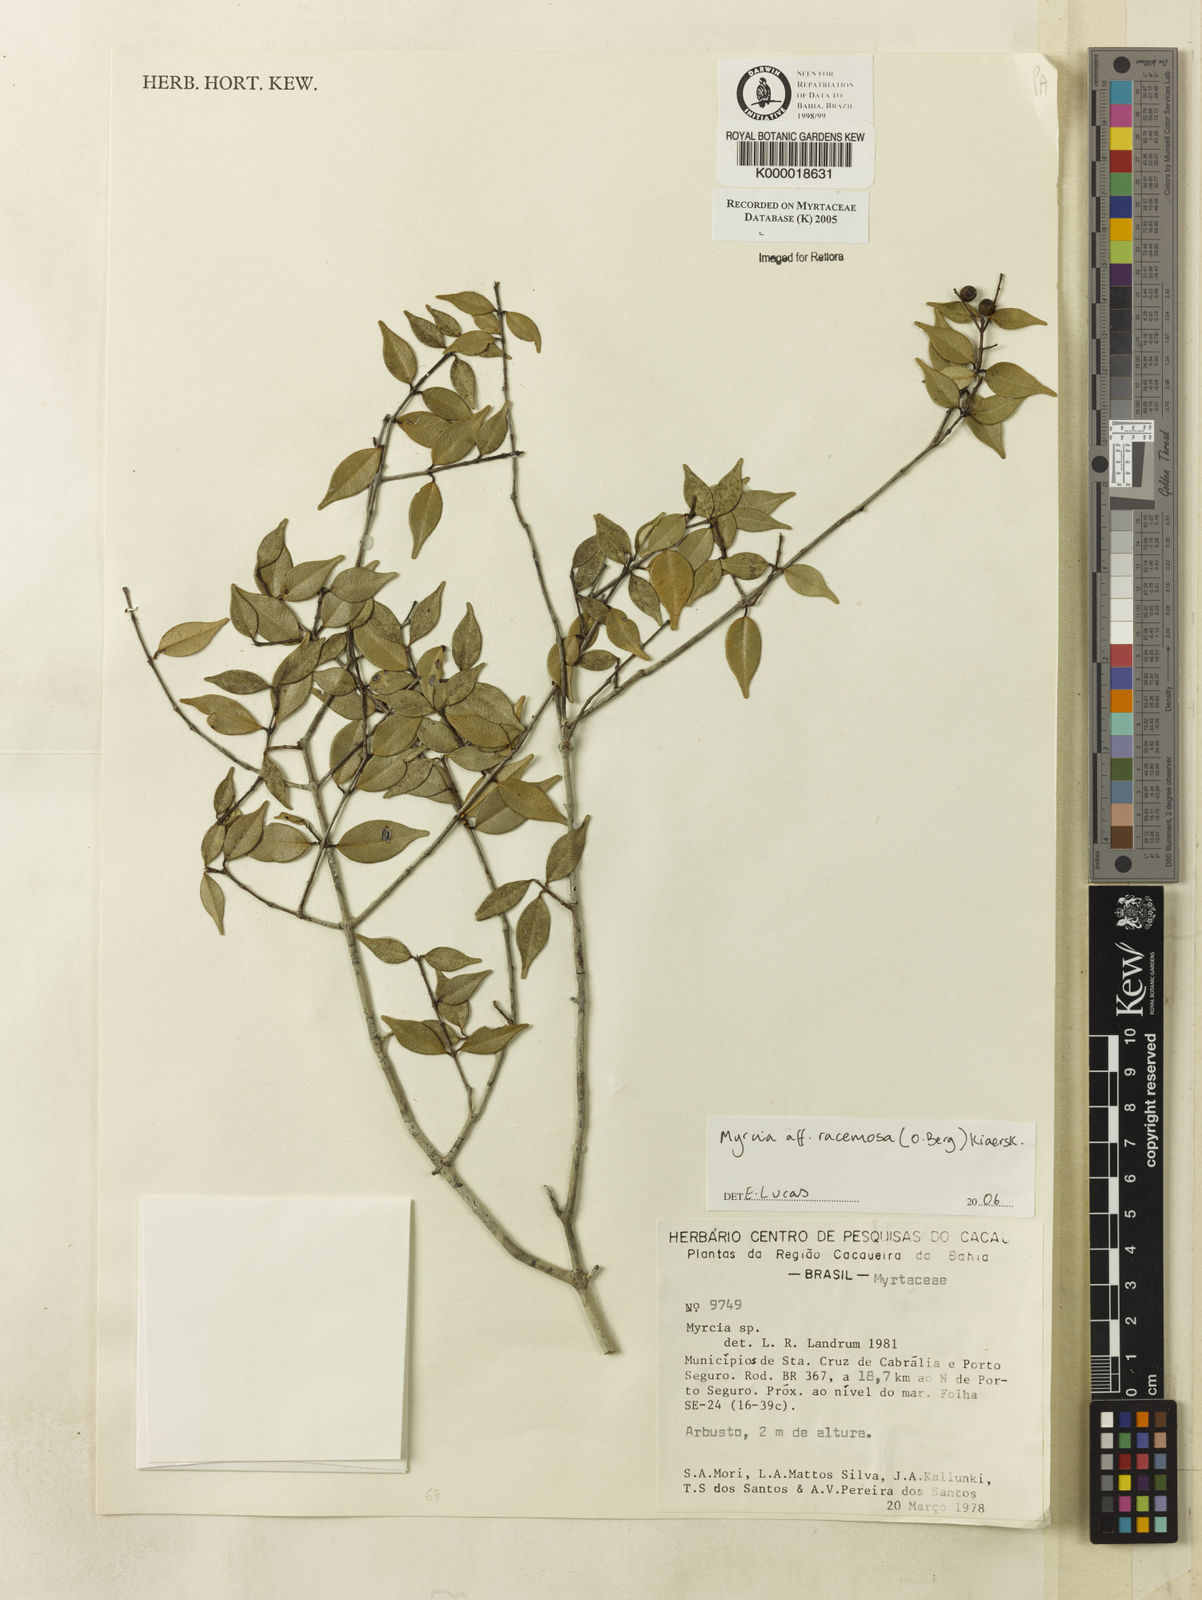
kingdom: Plantae
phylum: Tracheophyta
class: Magnoliopsida
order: Myrtales
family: Myrtaceae
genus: Myrcia
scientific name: Myrcia
